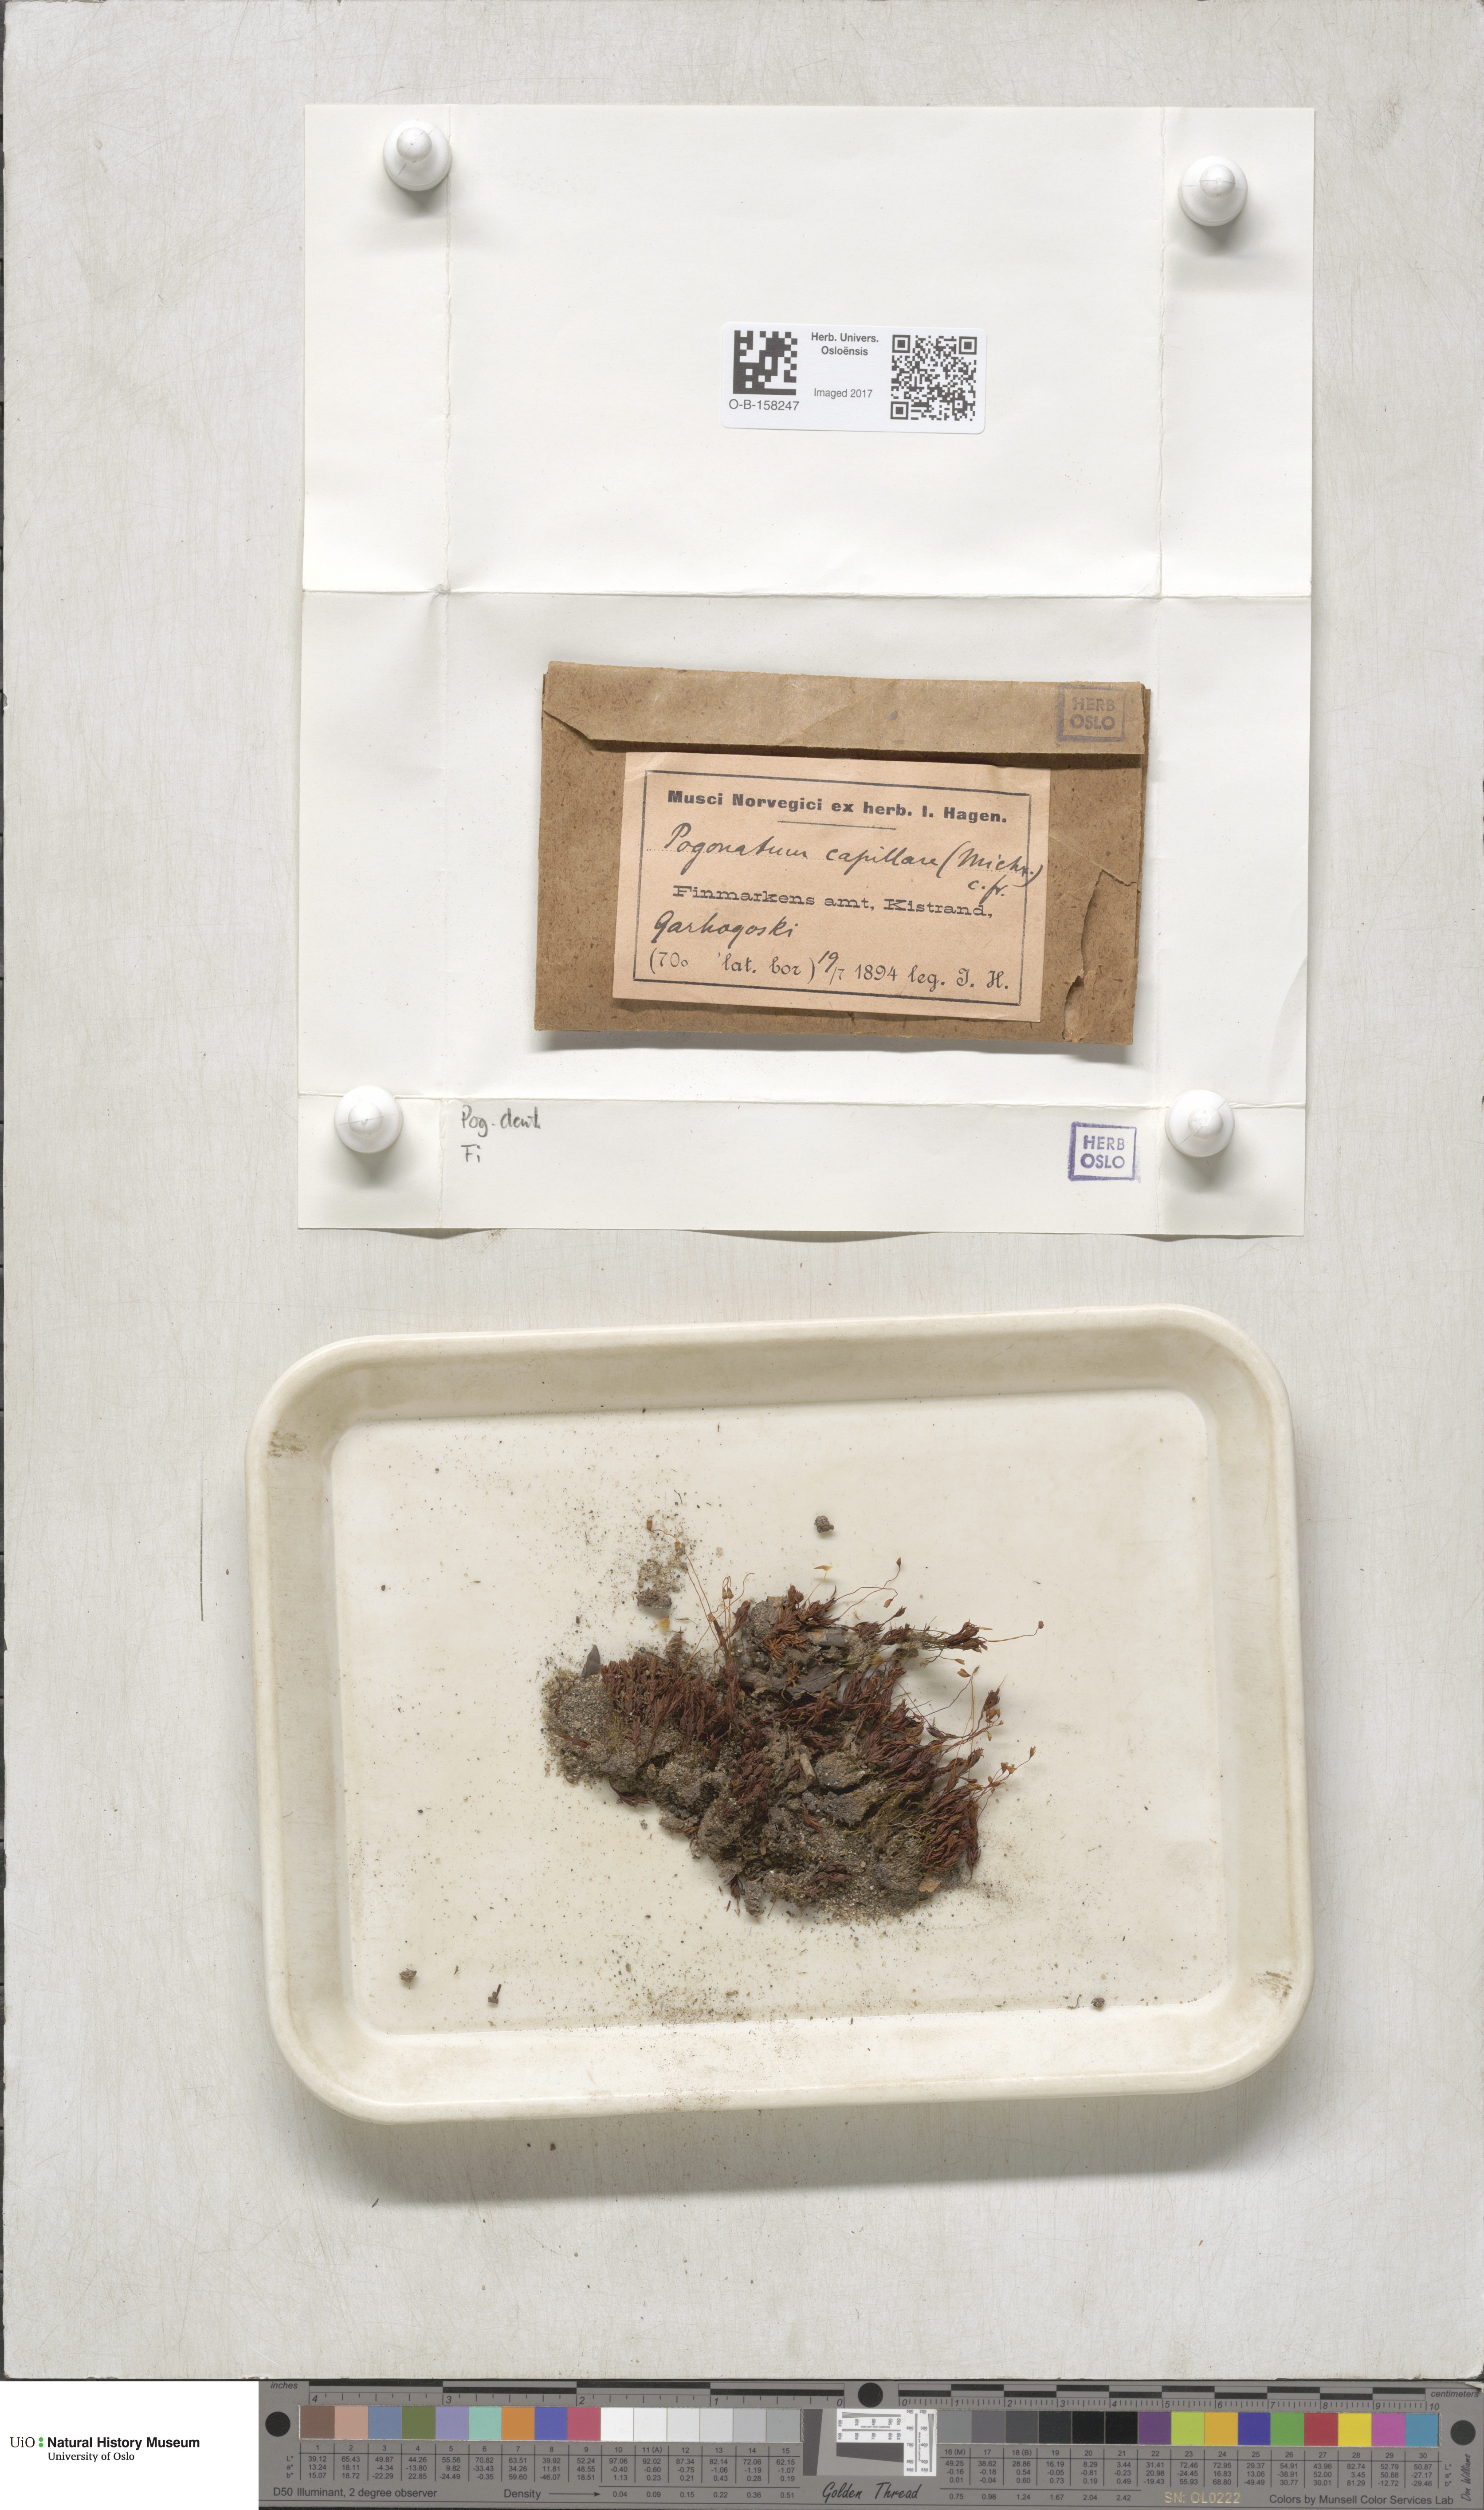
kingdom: Plantae
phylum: Bryophyta
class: Polytrichopsida
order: Polytrichales
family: Polytrichaceae
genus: Pogonatum
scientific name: Pogonatum dentatum
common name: Mountain hair moss
